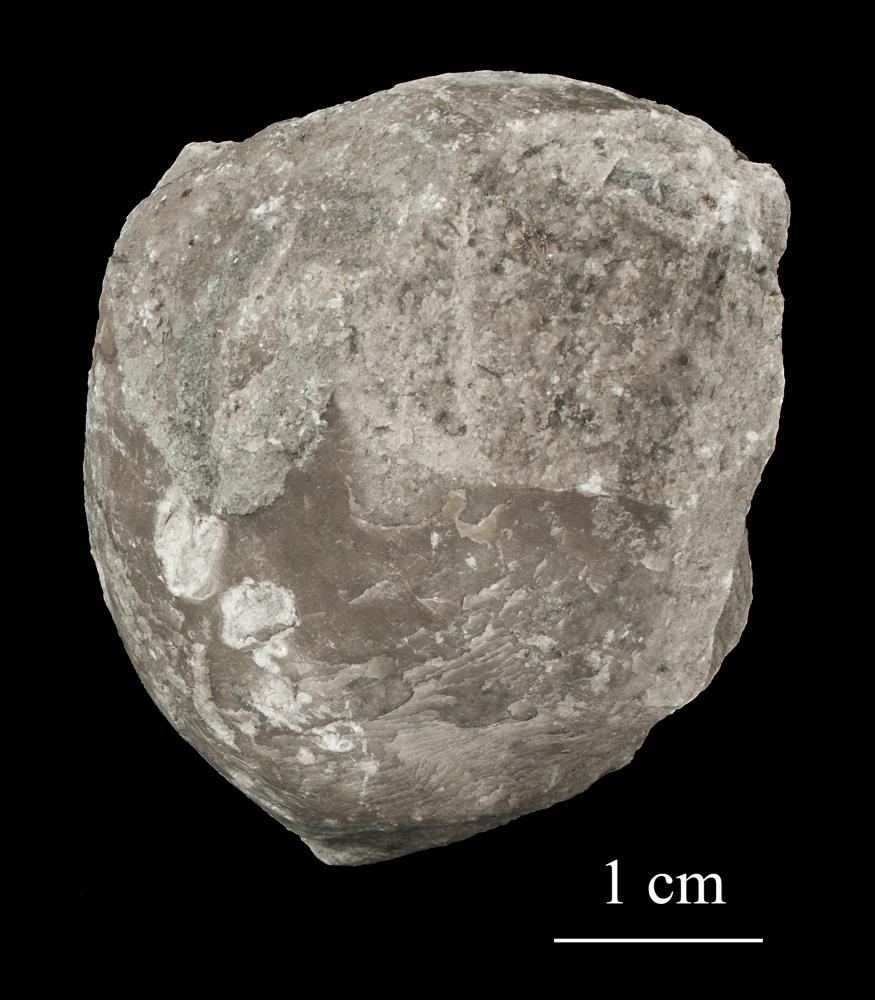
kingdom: Animalia
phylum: Brachiopoda
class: Rhynchonellata
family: Porambonitidae
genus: Porambonites
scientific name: Porambonites
